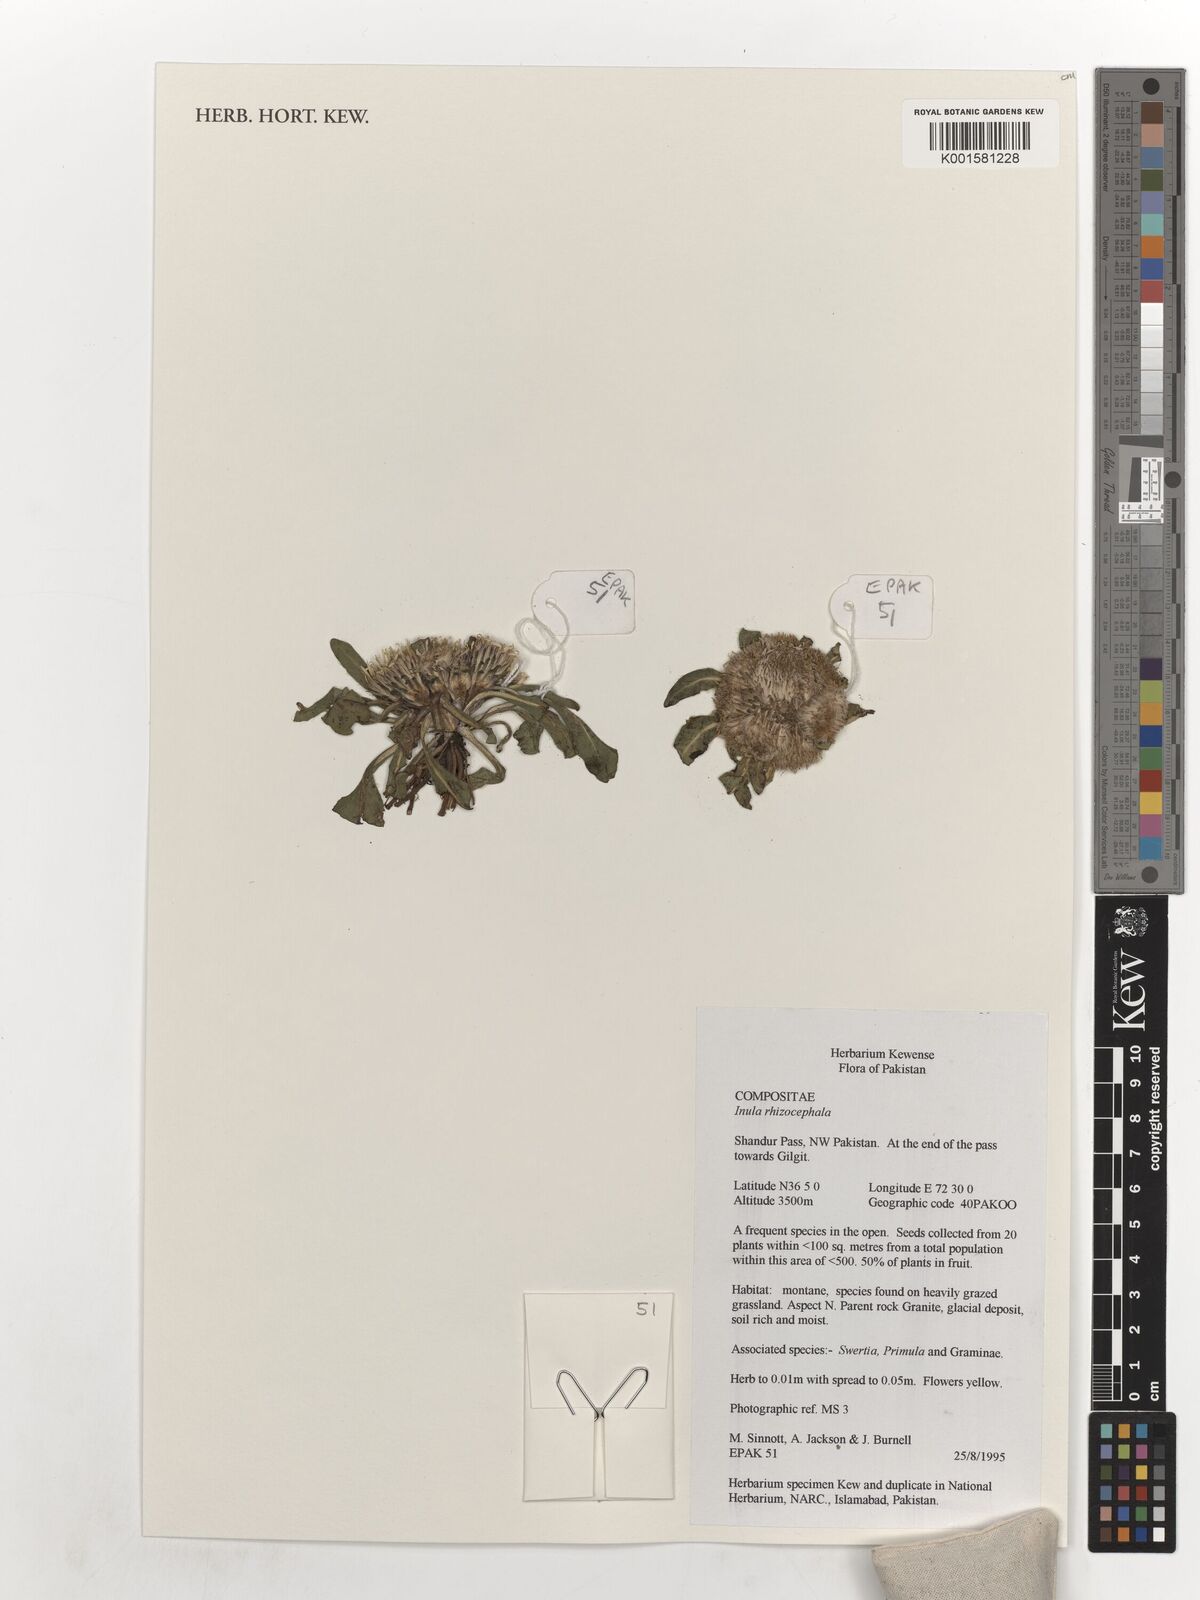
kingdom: Plantae
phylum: Tracheophyta
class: Magnoliopsida
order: Asterales
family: Asteraceae
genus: Inula
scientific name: Inula rhizocephala
